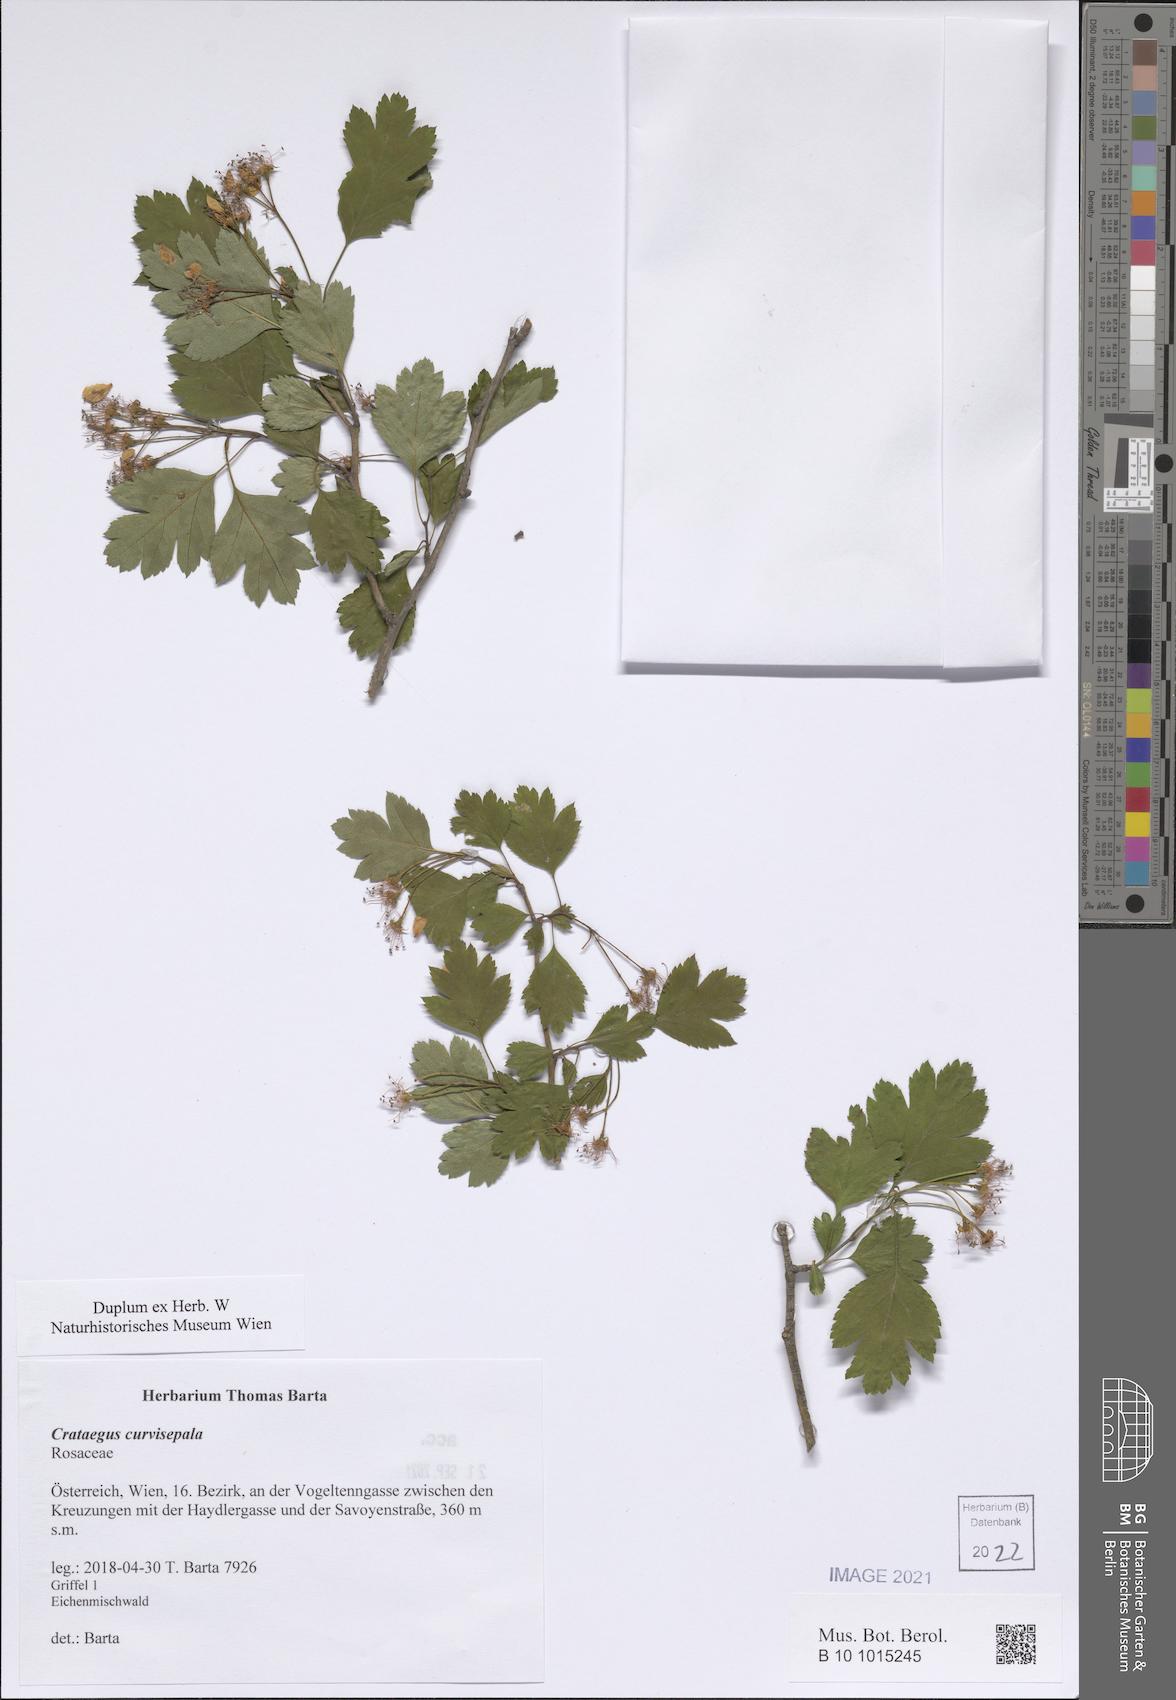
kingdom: Plantae
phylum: Tracheophyta
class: Magnoliopsida
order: Rosales
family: Rosaceae
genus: Crataegus
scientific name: Crataegus rhipidophylla
